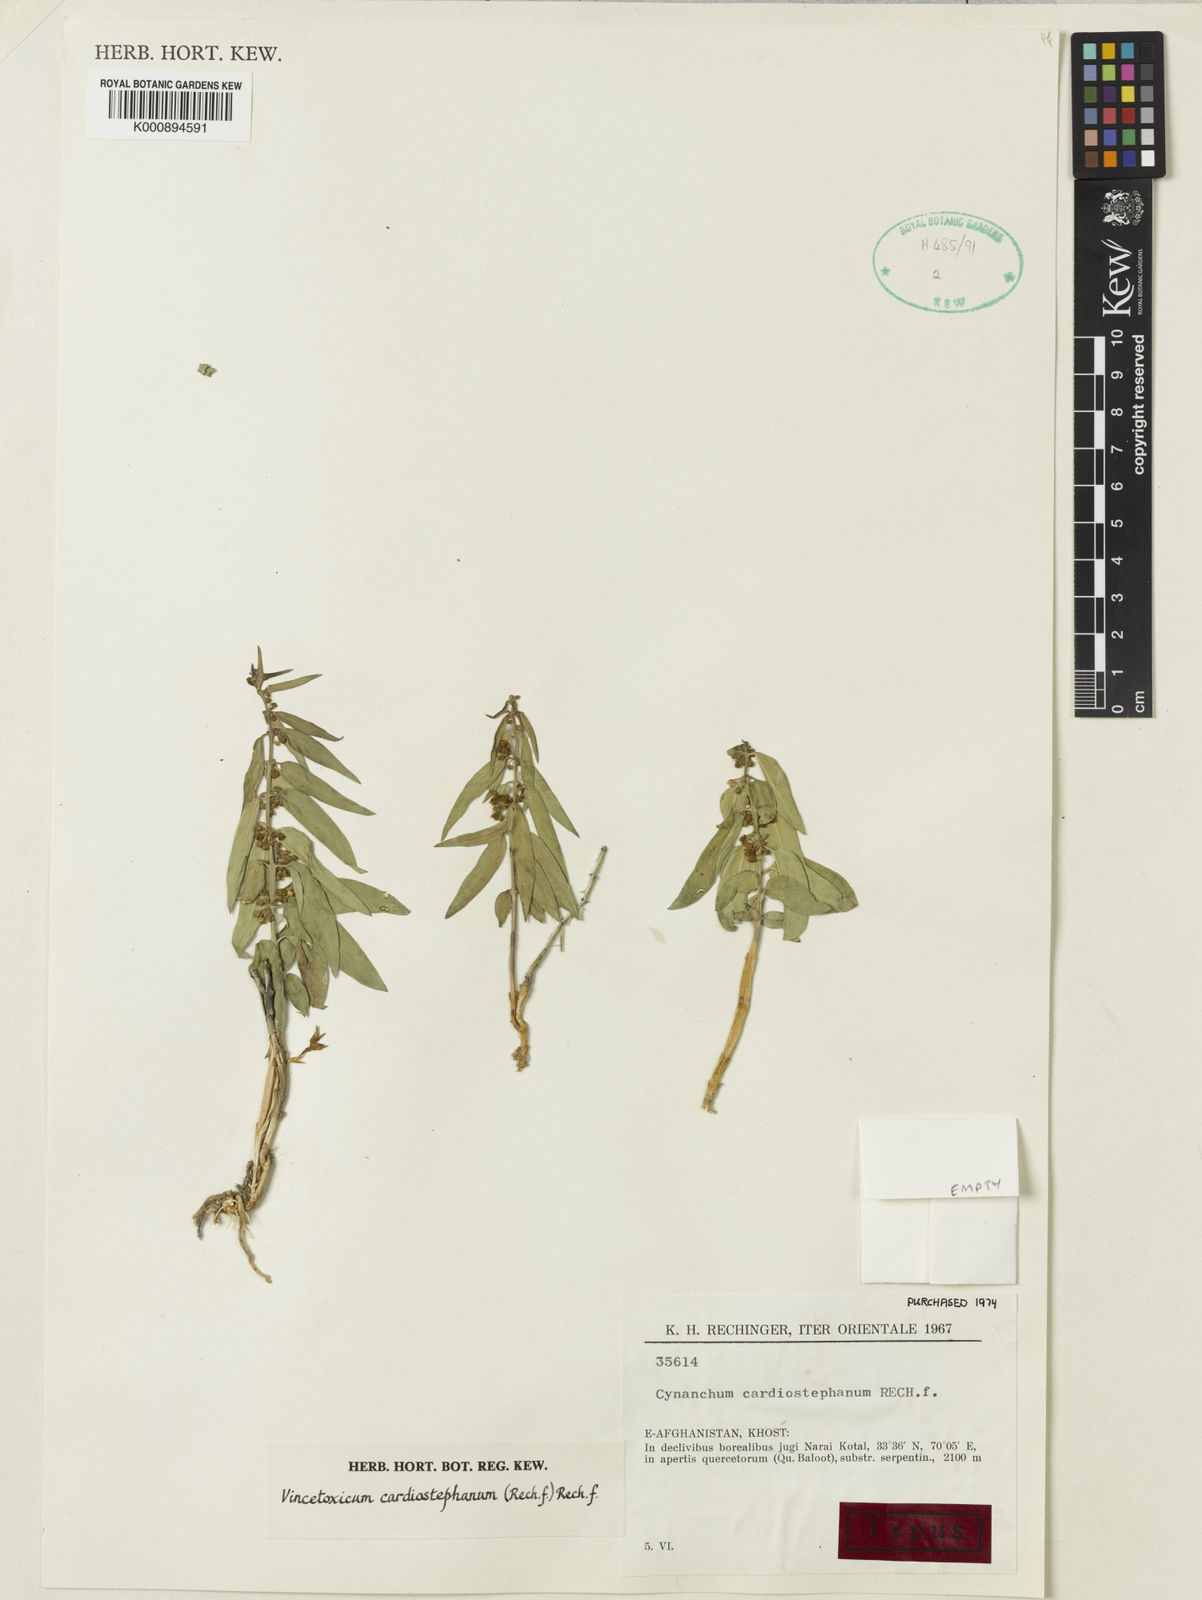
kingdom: Plantae
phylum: Tracheophyta
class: Magnoliopsida
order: Gentianales
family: Apocynaceae
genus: Vincetoxicum
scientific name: Vincetoxicum arnottianum
